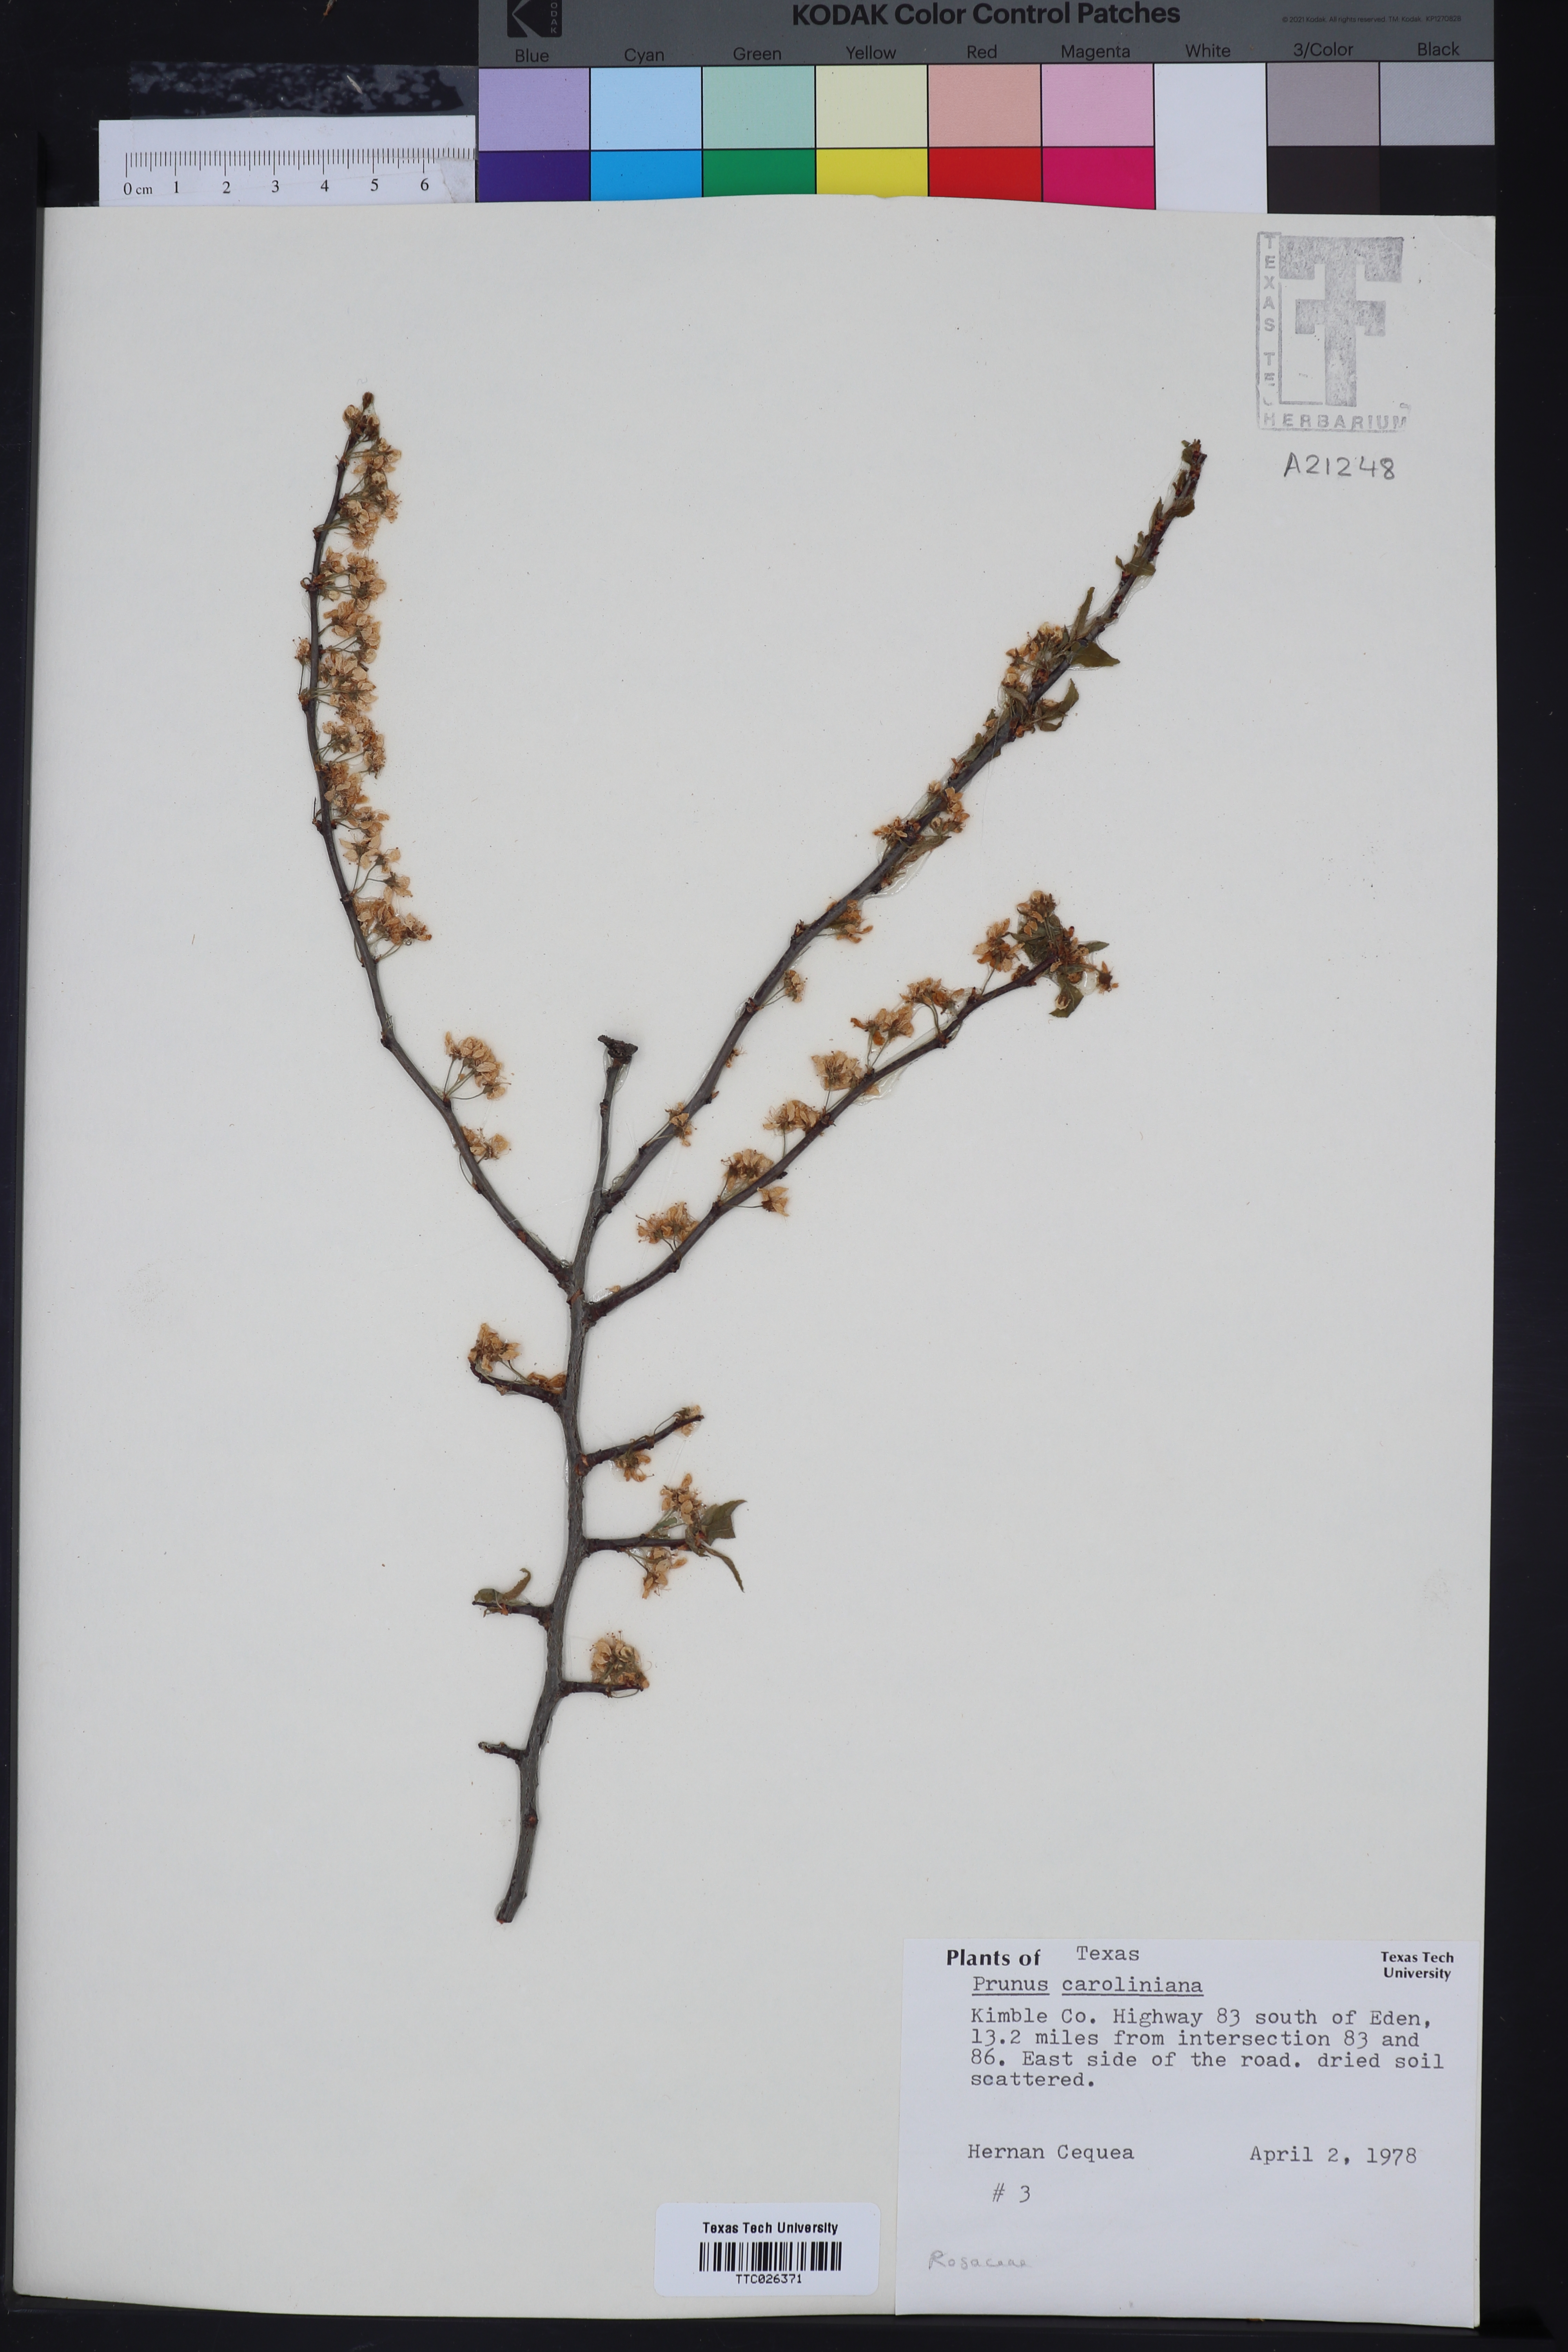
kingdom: Plantae
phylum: Tracheophyta
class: Magnoliopsida
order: Rosales
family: Rosaceae
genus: Prunus
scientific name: Prunus caroliniana
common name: Carolina laurel cherry
